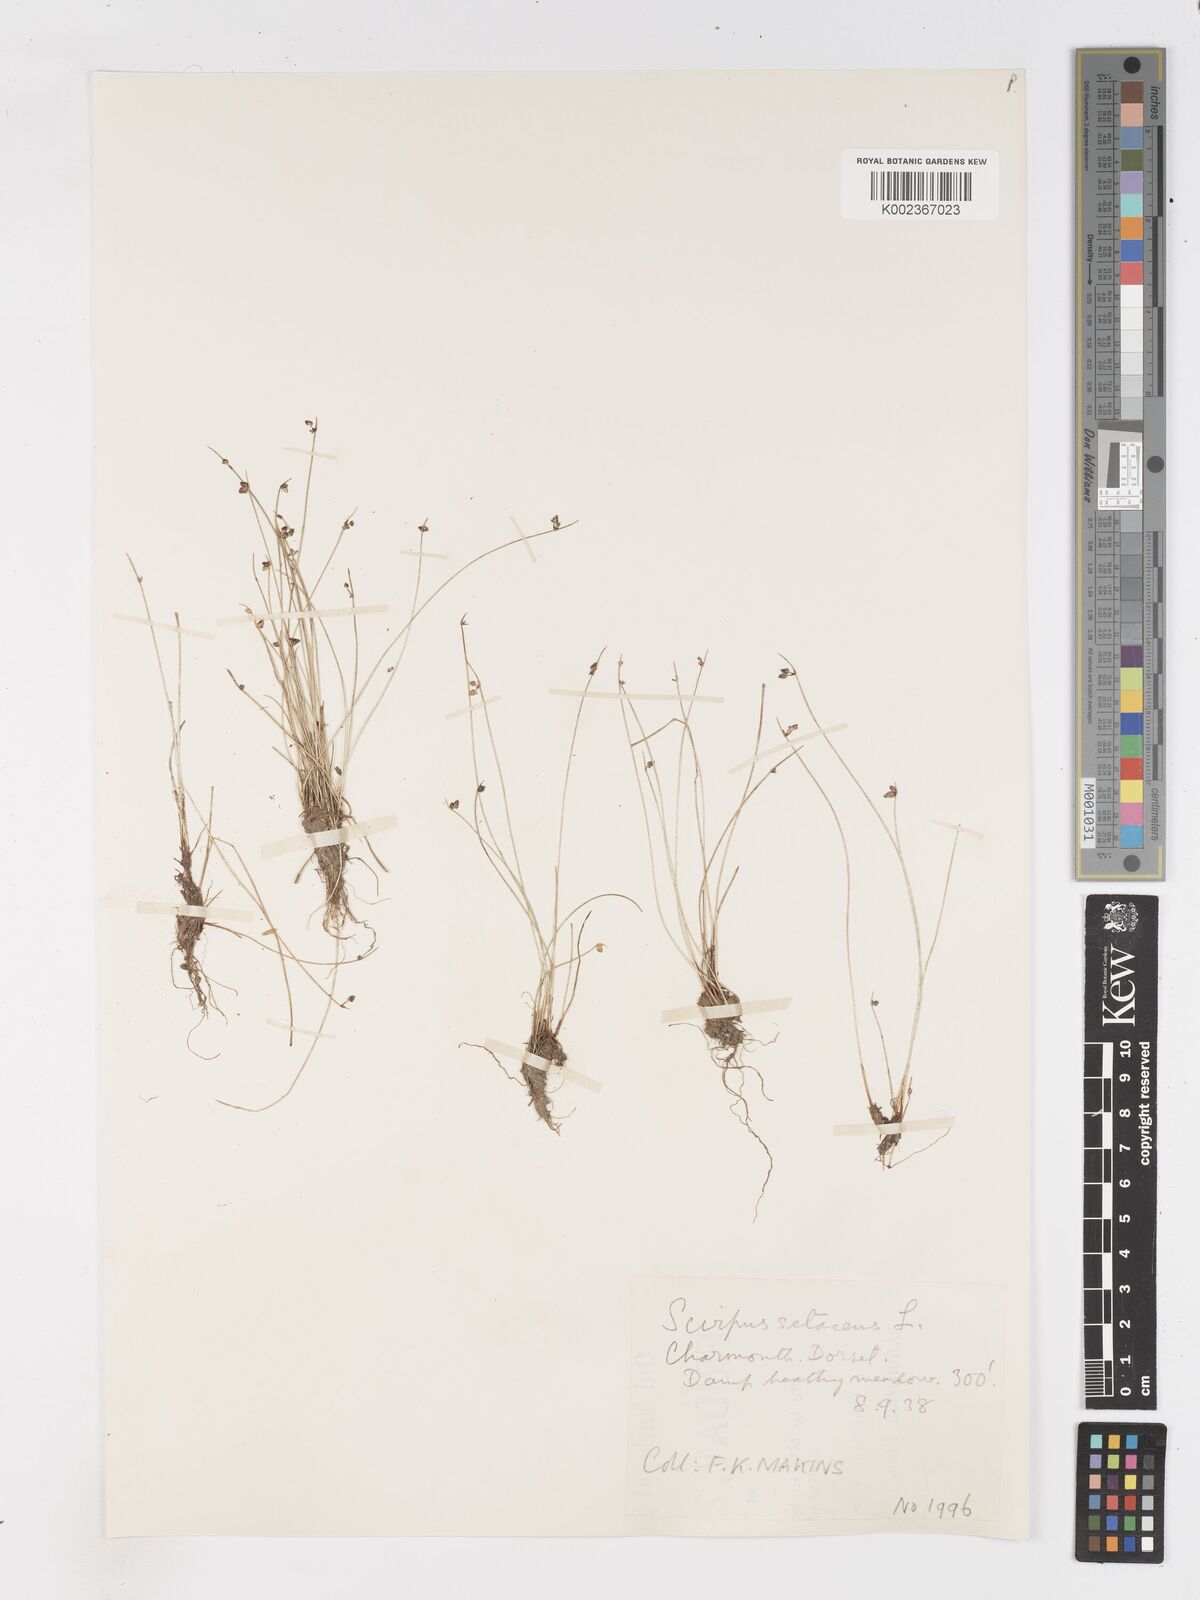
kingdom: Plantae
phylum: Tracheophyta
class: Liliopsida
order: Poales
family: Cyperaceae
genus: Isolepis
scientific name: Isolepis setacea
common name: Bristle club-rush
